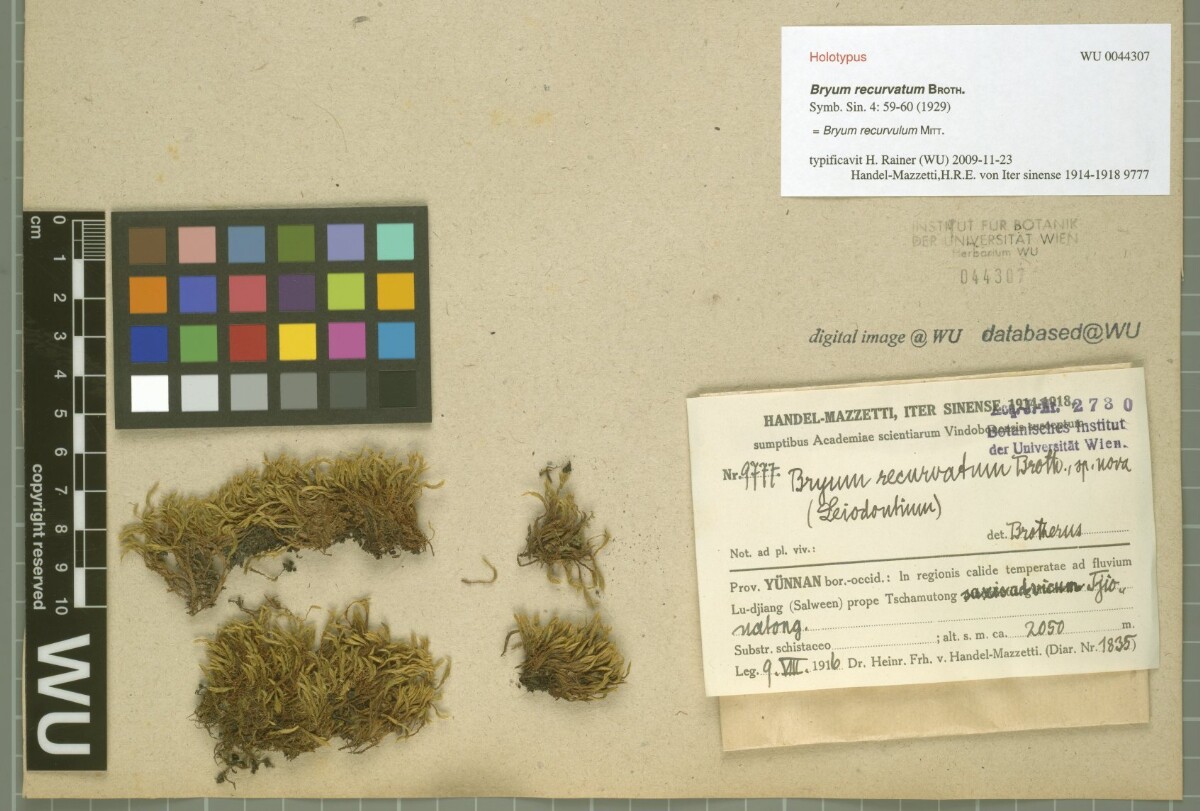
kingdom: Plantae
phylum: Bryophyta
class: Bryopsida
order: Bryales
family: Bryaceae
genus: Bryum
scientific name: Bryum recurvulum
